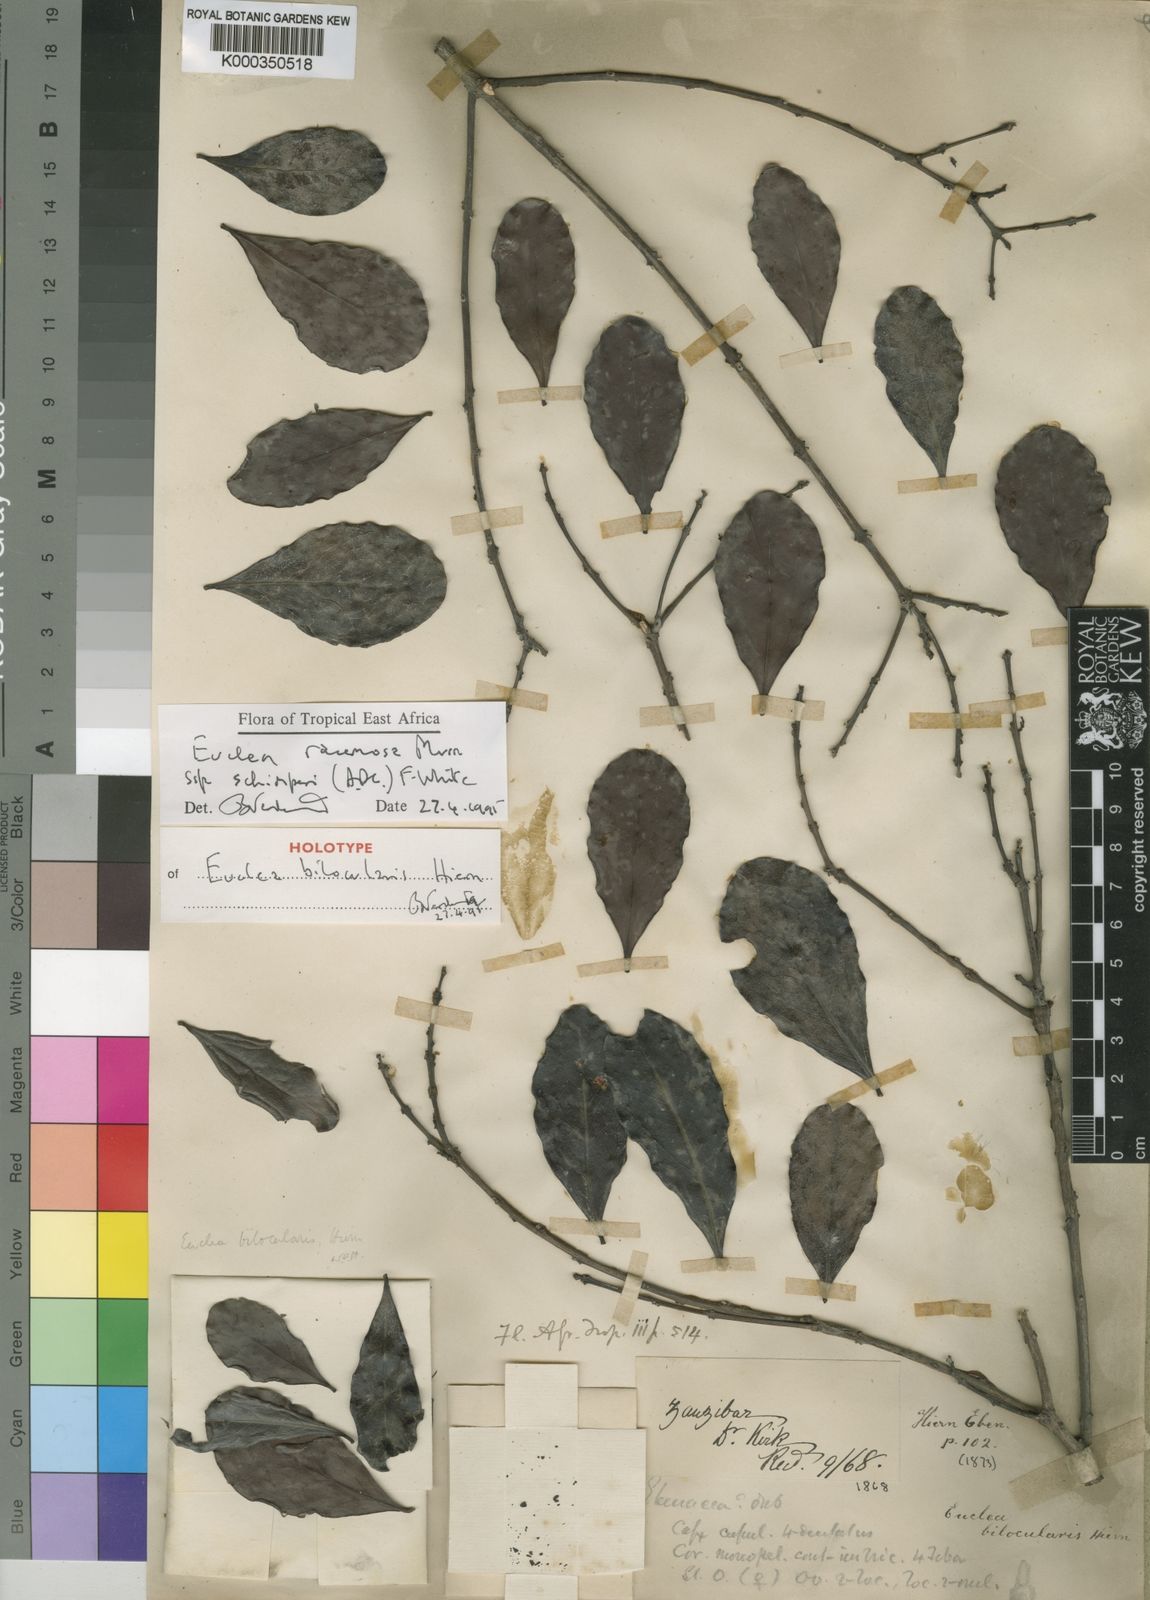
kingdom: Plantae
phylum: Tracheophyta
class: Magnoliopsida
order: Ericales
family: Ebenaceae
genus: Euclea
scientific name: Euclea racemosa
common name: Dune guarri
